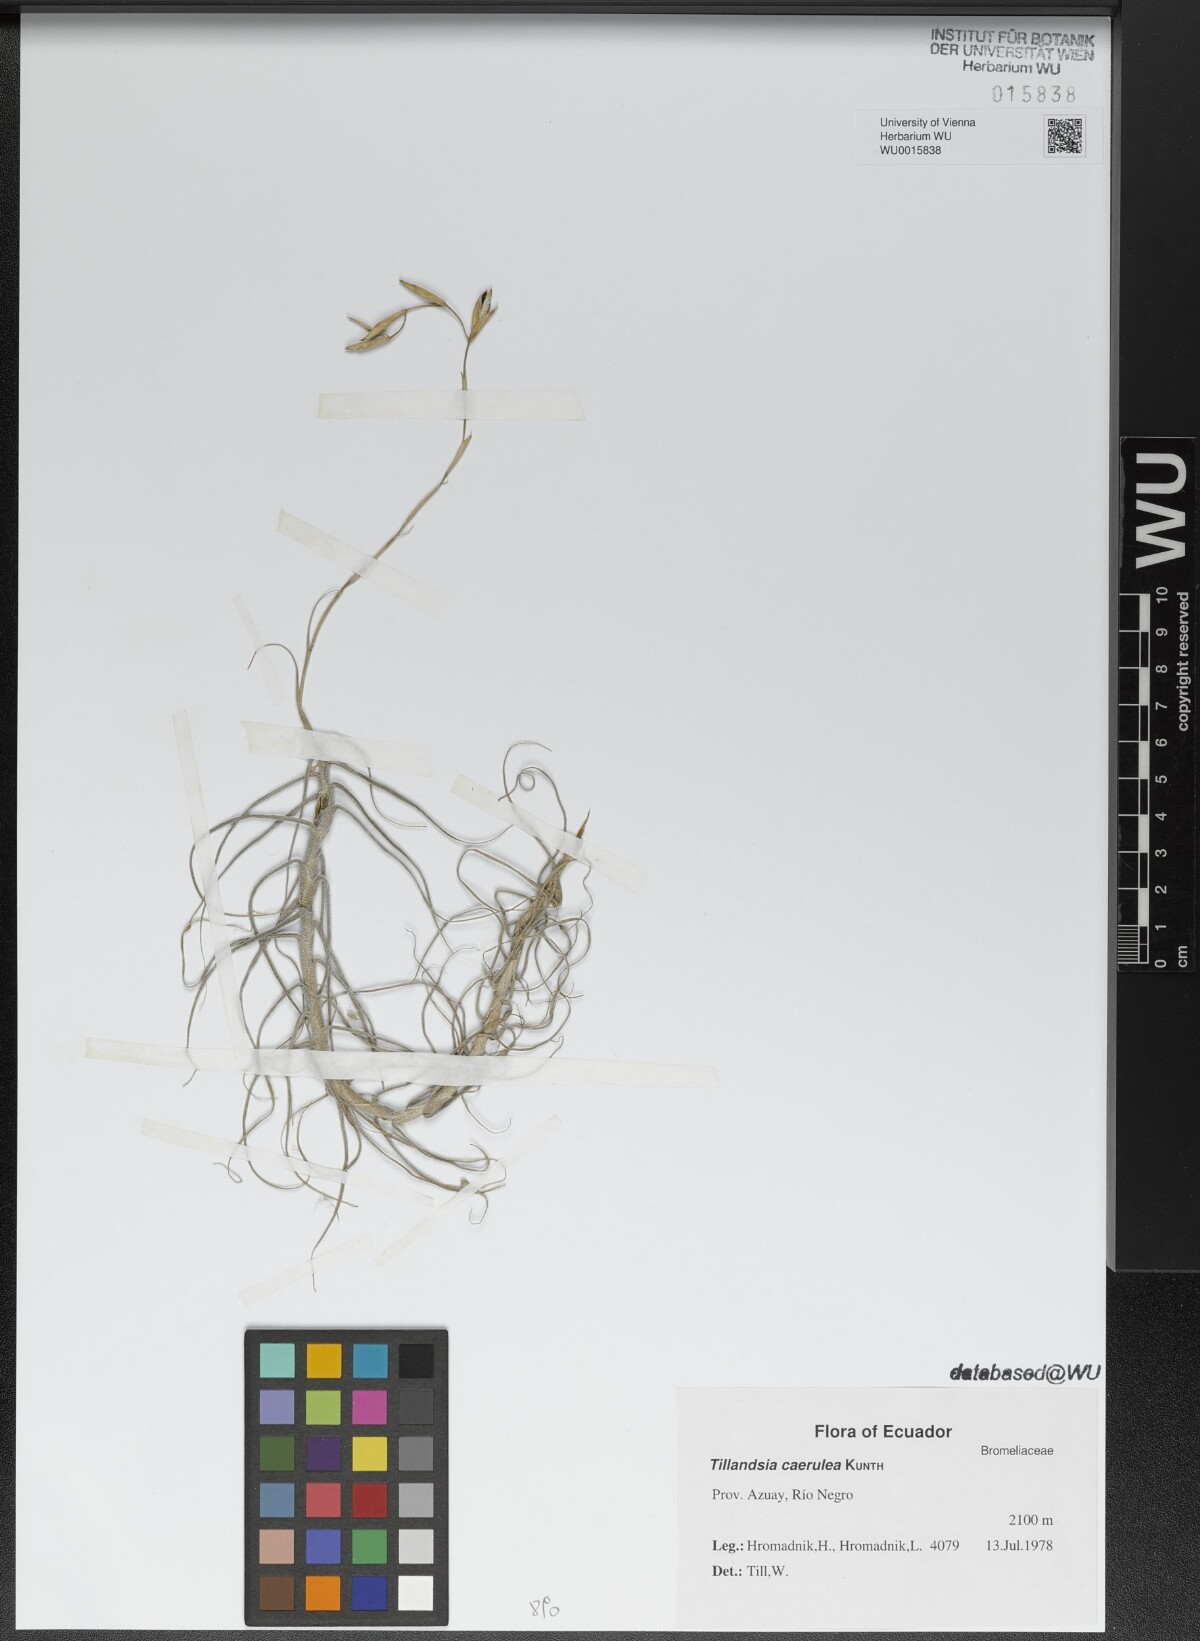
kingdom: Plantae
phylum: Tracheophyta
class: Liliopsida
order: Poales
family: Bromeliaceae
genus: Tillandsia
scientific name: Tillandsia caerulea
